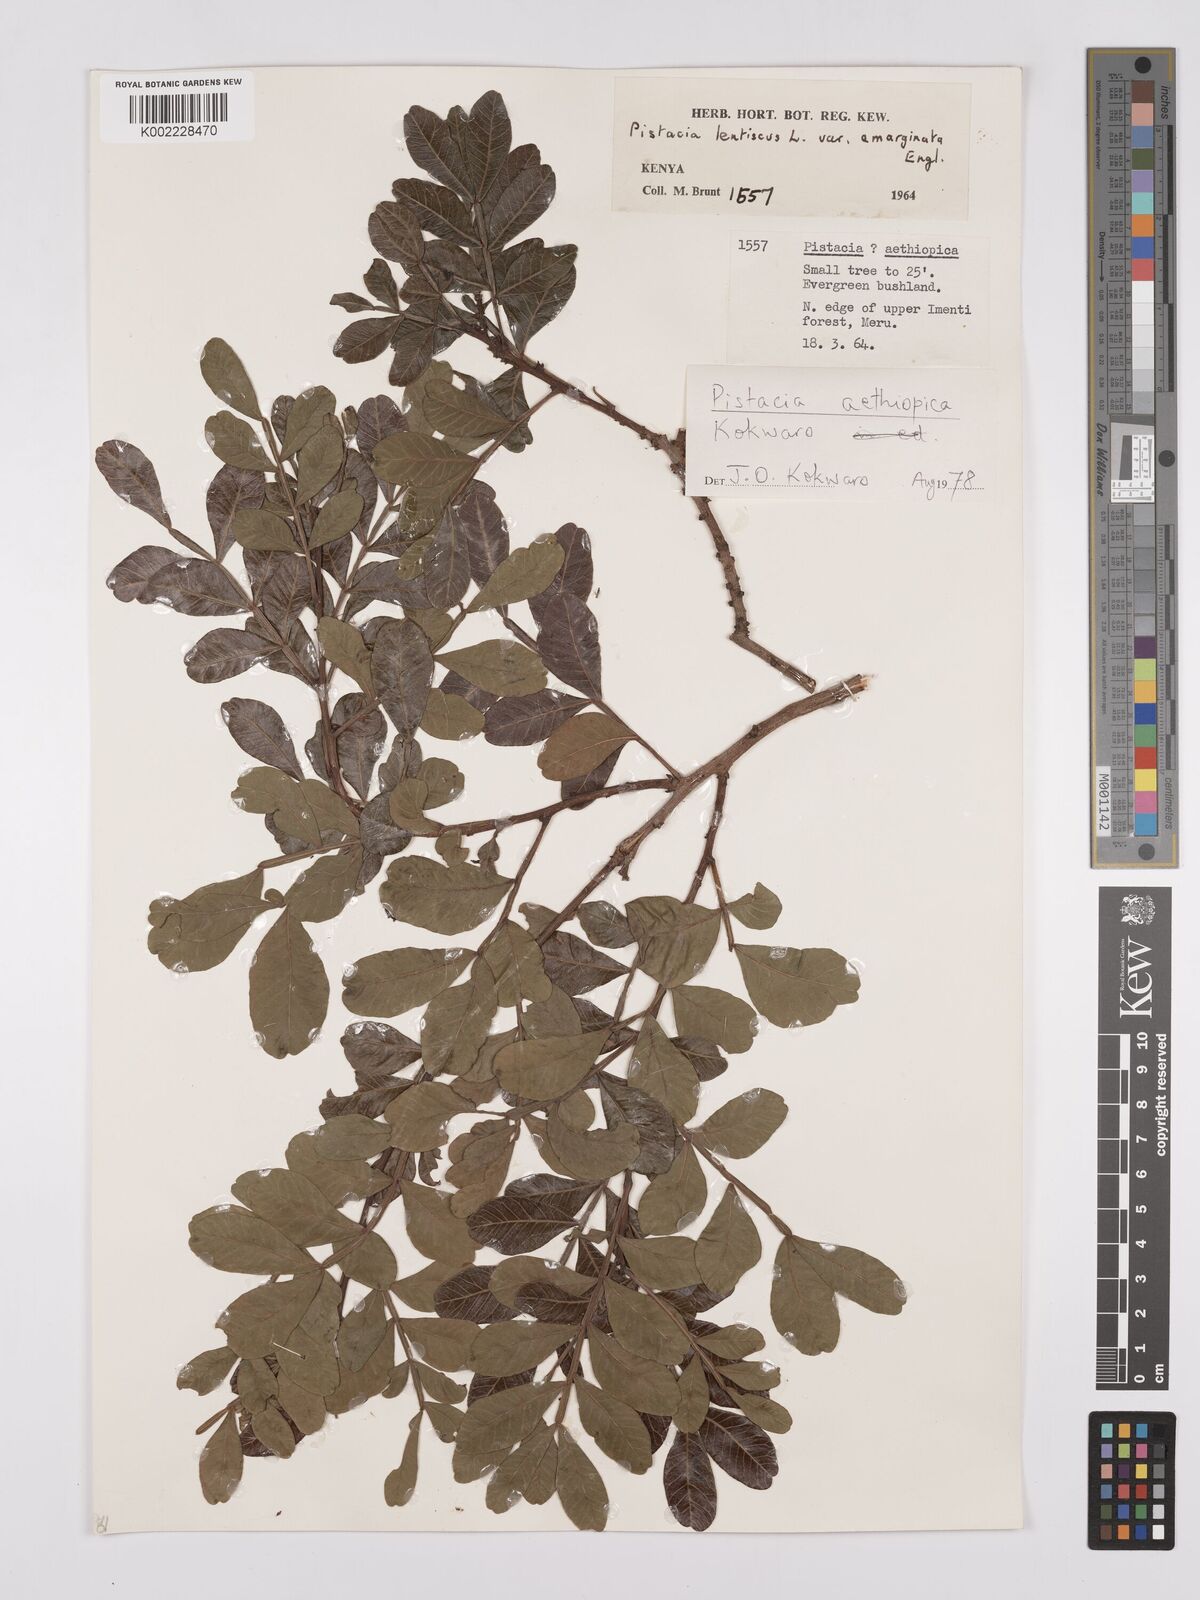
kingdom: Plantae
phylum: Tracheophyta
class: Magnoliopsida
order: Sapindales
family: Anacardiaceae
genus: Pistacia
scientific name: Pistacia lentiscus
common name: Lentisk
